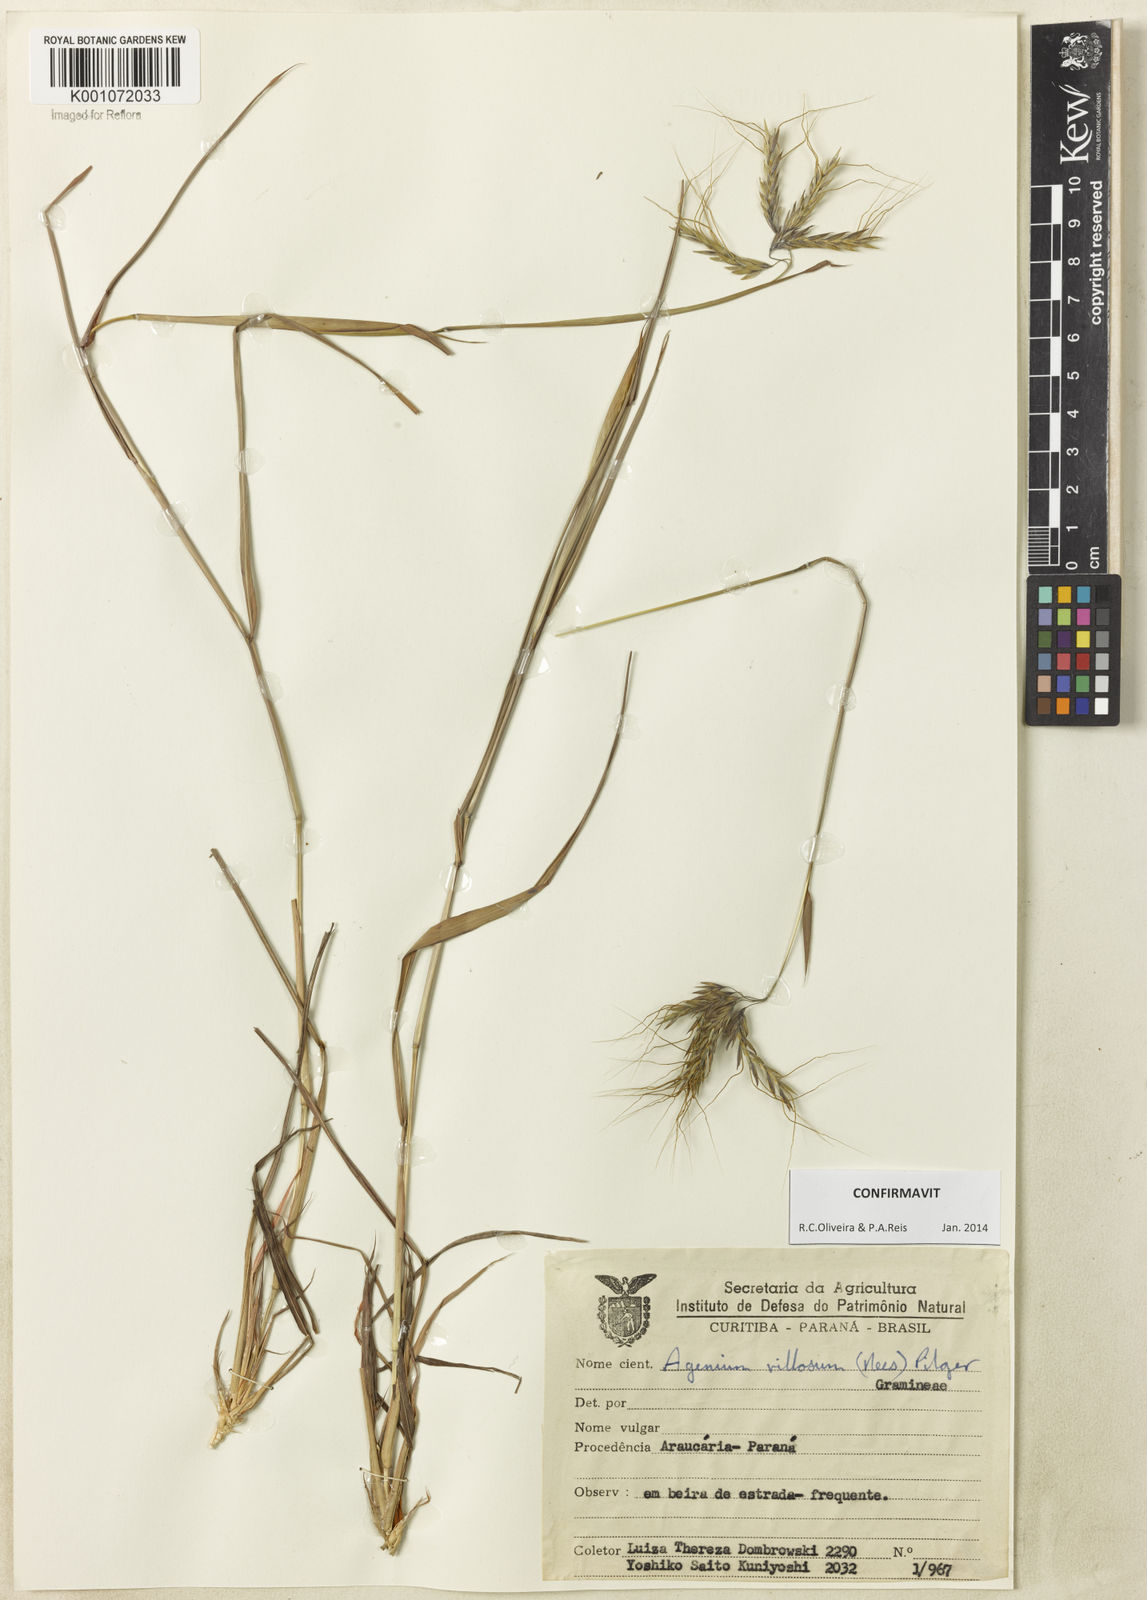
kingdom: Plantae
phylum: Tracheophyta
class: Liliopsida
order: Poales
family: Poaceae
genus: Agenium
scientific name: Agenium villosum
